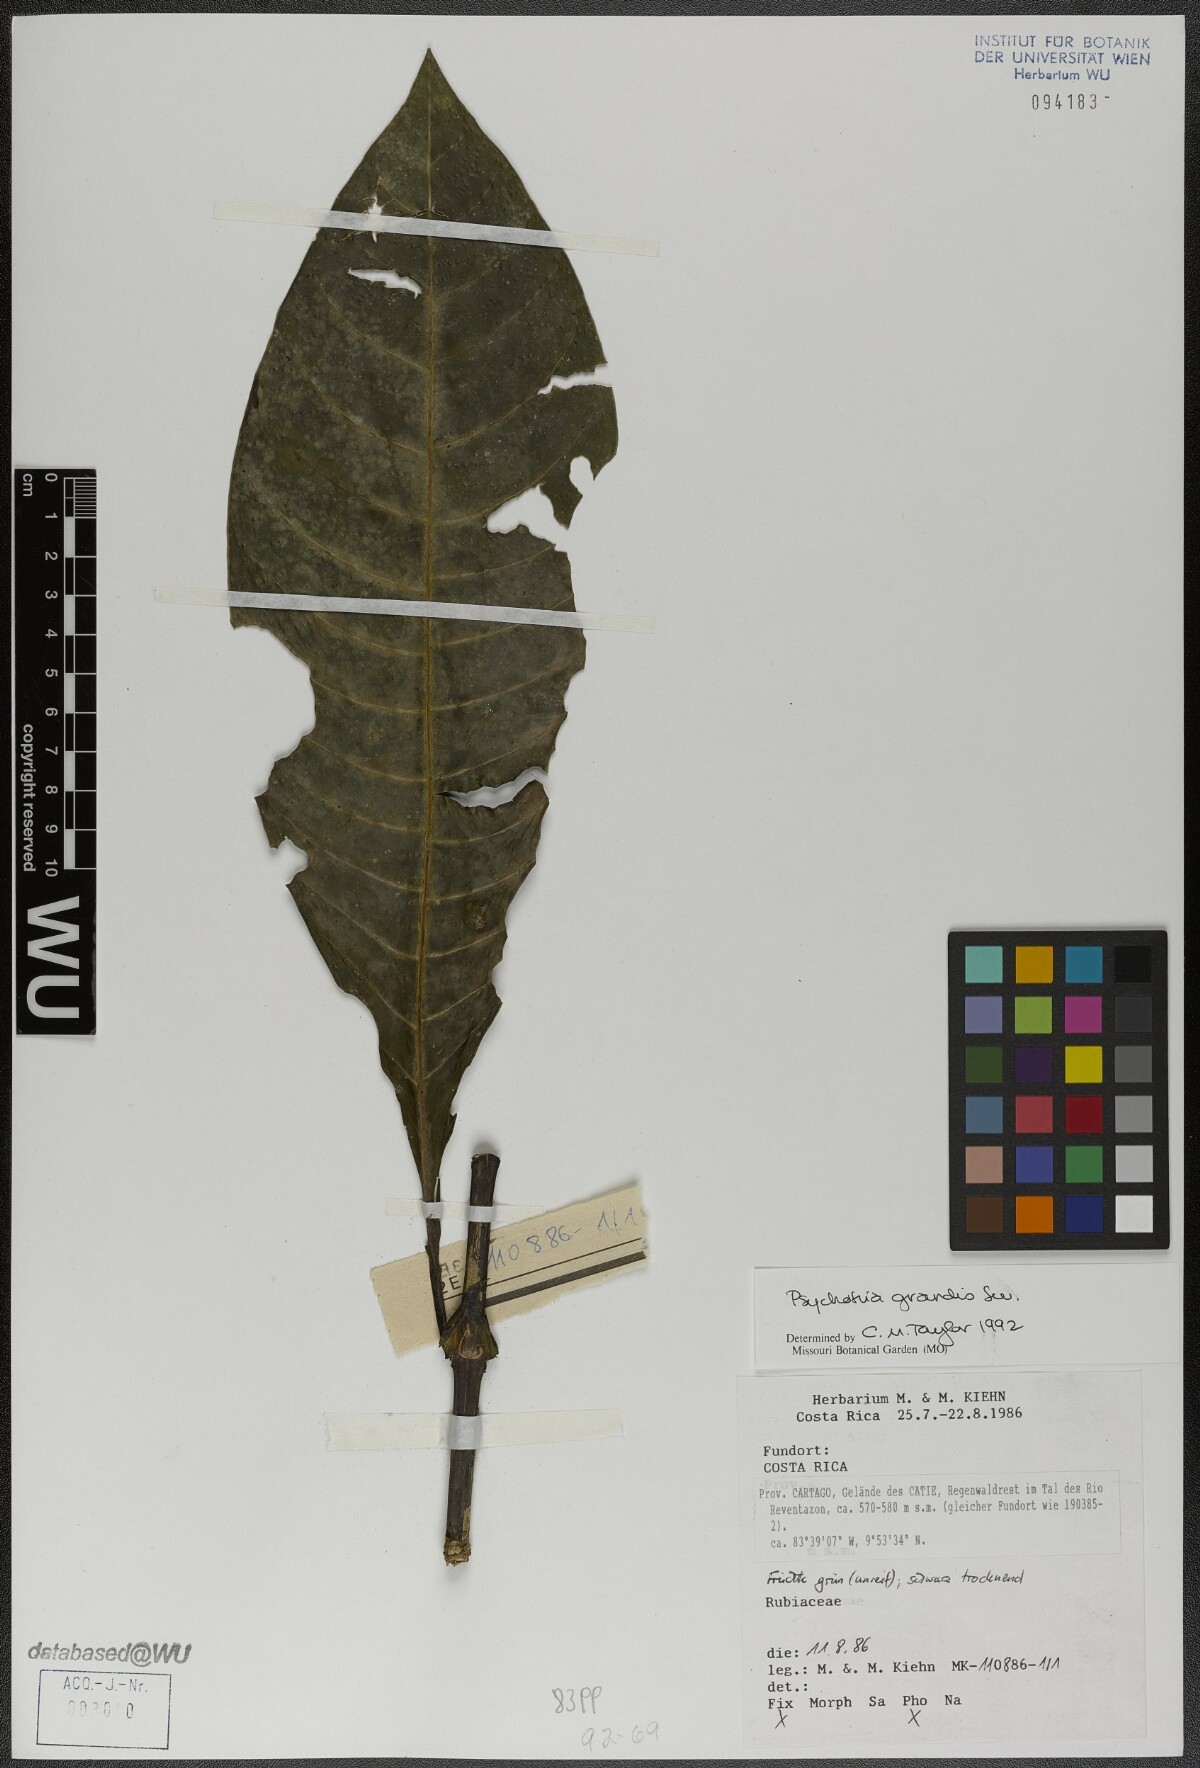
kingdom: Plantae
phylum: Tracheophyta
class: Magnoliopsida
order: Gentianales
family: Rubiaceae
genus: Psychotria
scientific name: Psychotria grandis
